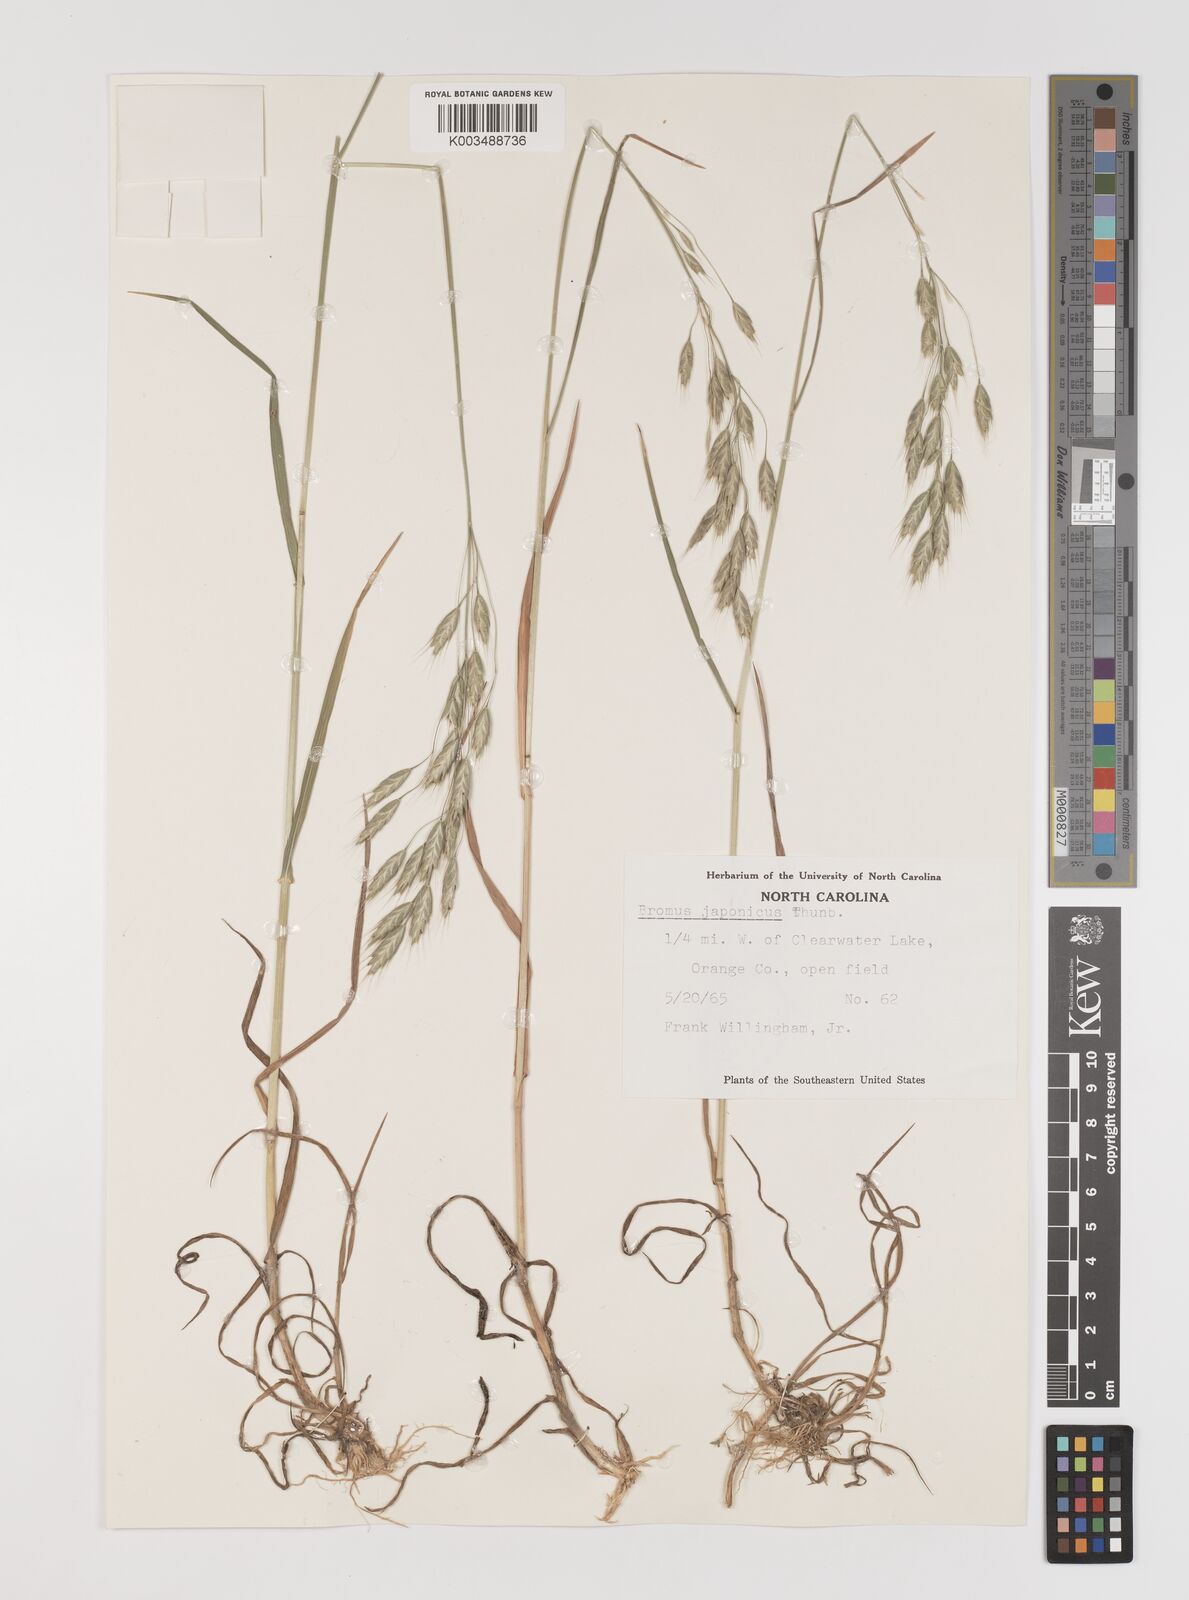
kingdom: Plantae
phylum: Tracheophyta
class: Liliopsida
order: Poales
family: Poaceae
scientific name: Poaceae
